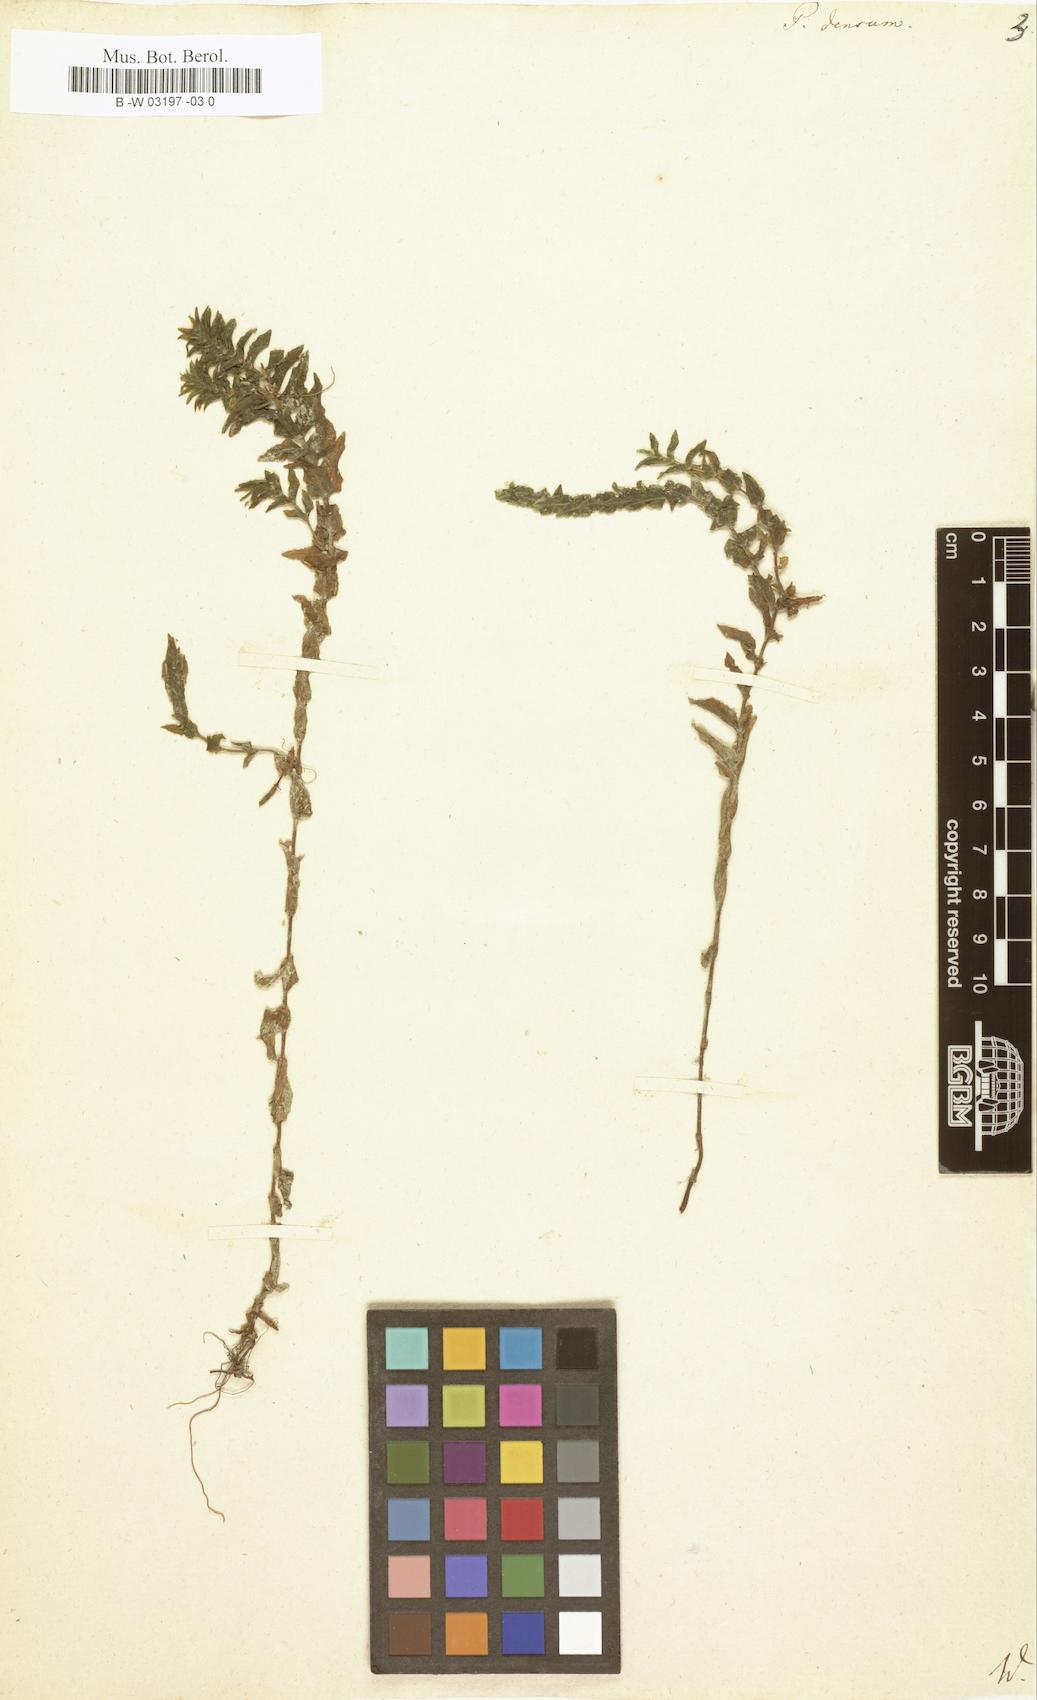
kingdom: Plantae
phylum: Tracheophyta
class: Liliopsida
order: Alismatales
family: Potamogetonaceae
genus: Groenlandia
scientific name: Groenlandia densa
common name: Opposite-leaved pondweed
